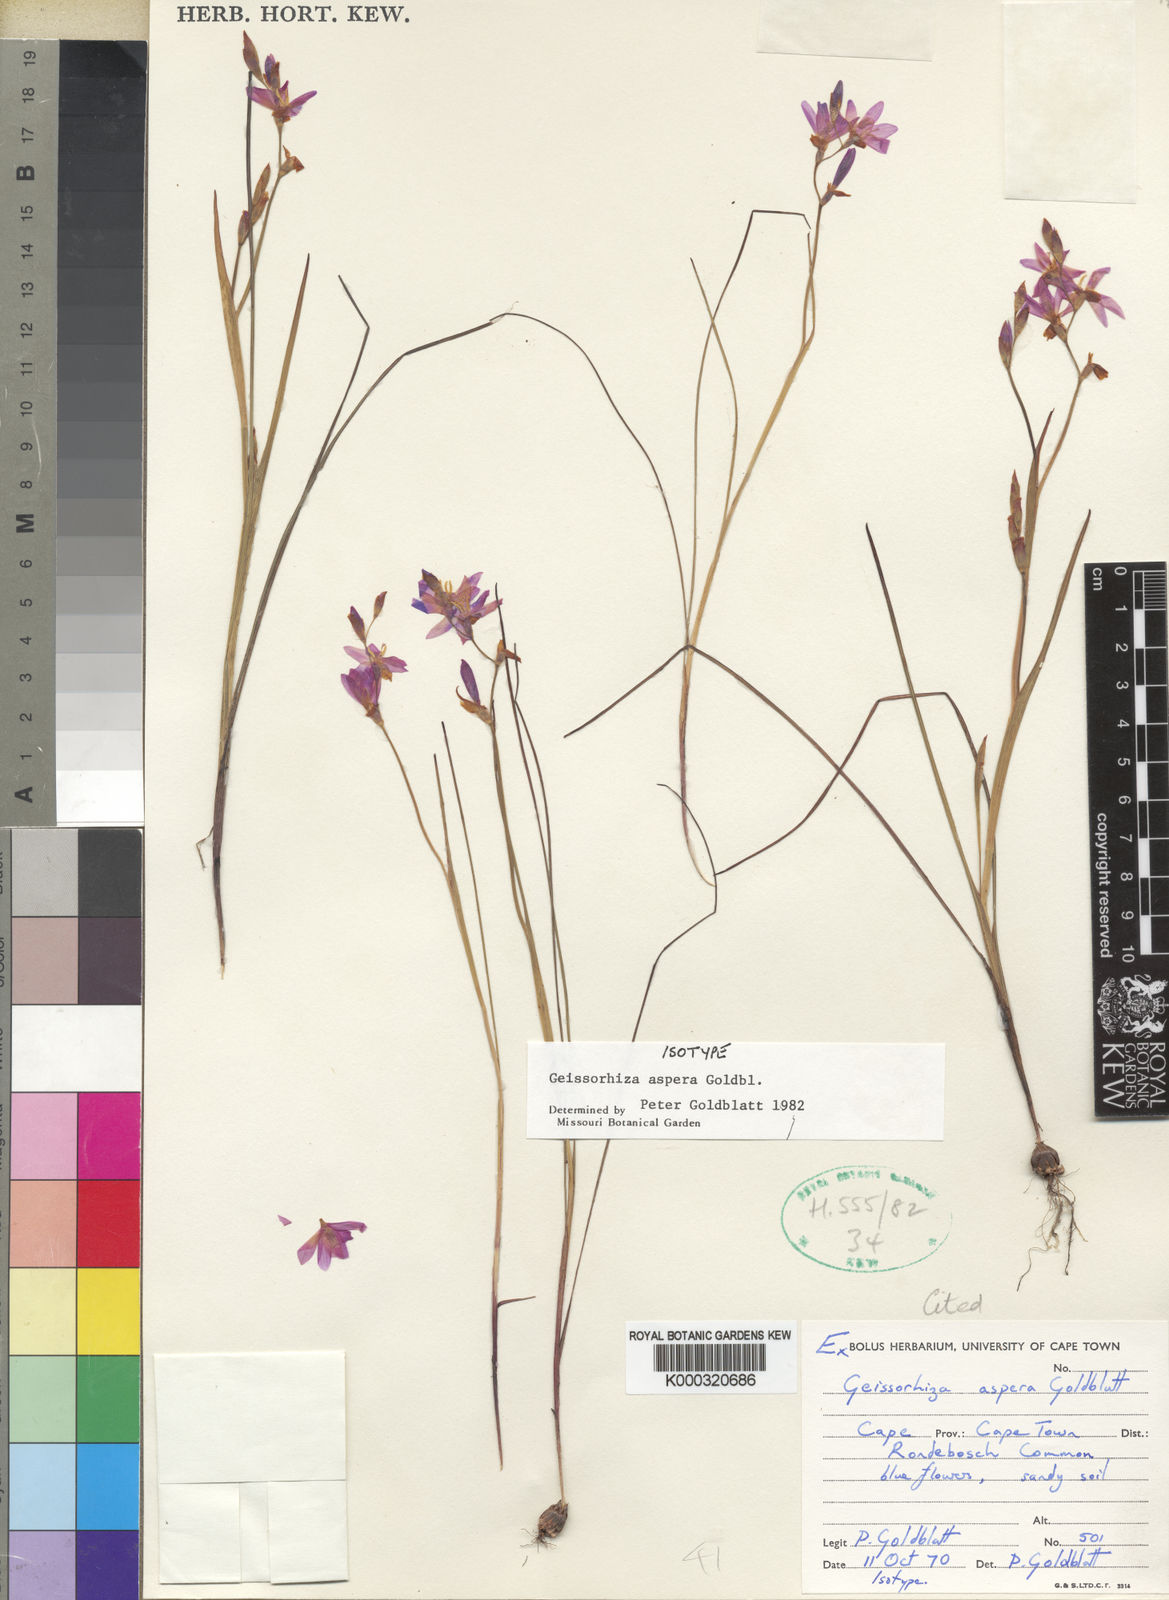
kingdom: Plantae
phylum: Tracheophyta
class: Liliopsida
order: Asparagales
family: Iridaceae
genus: Geissorhiza
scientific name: Geissorhiza aspera
